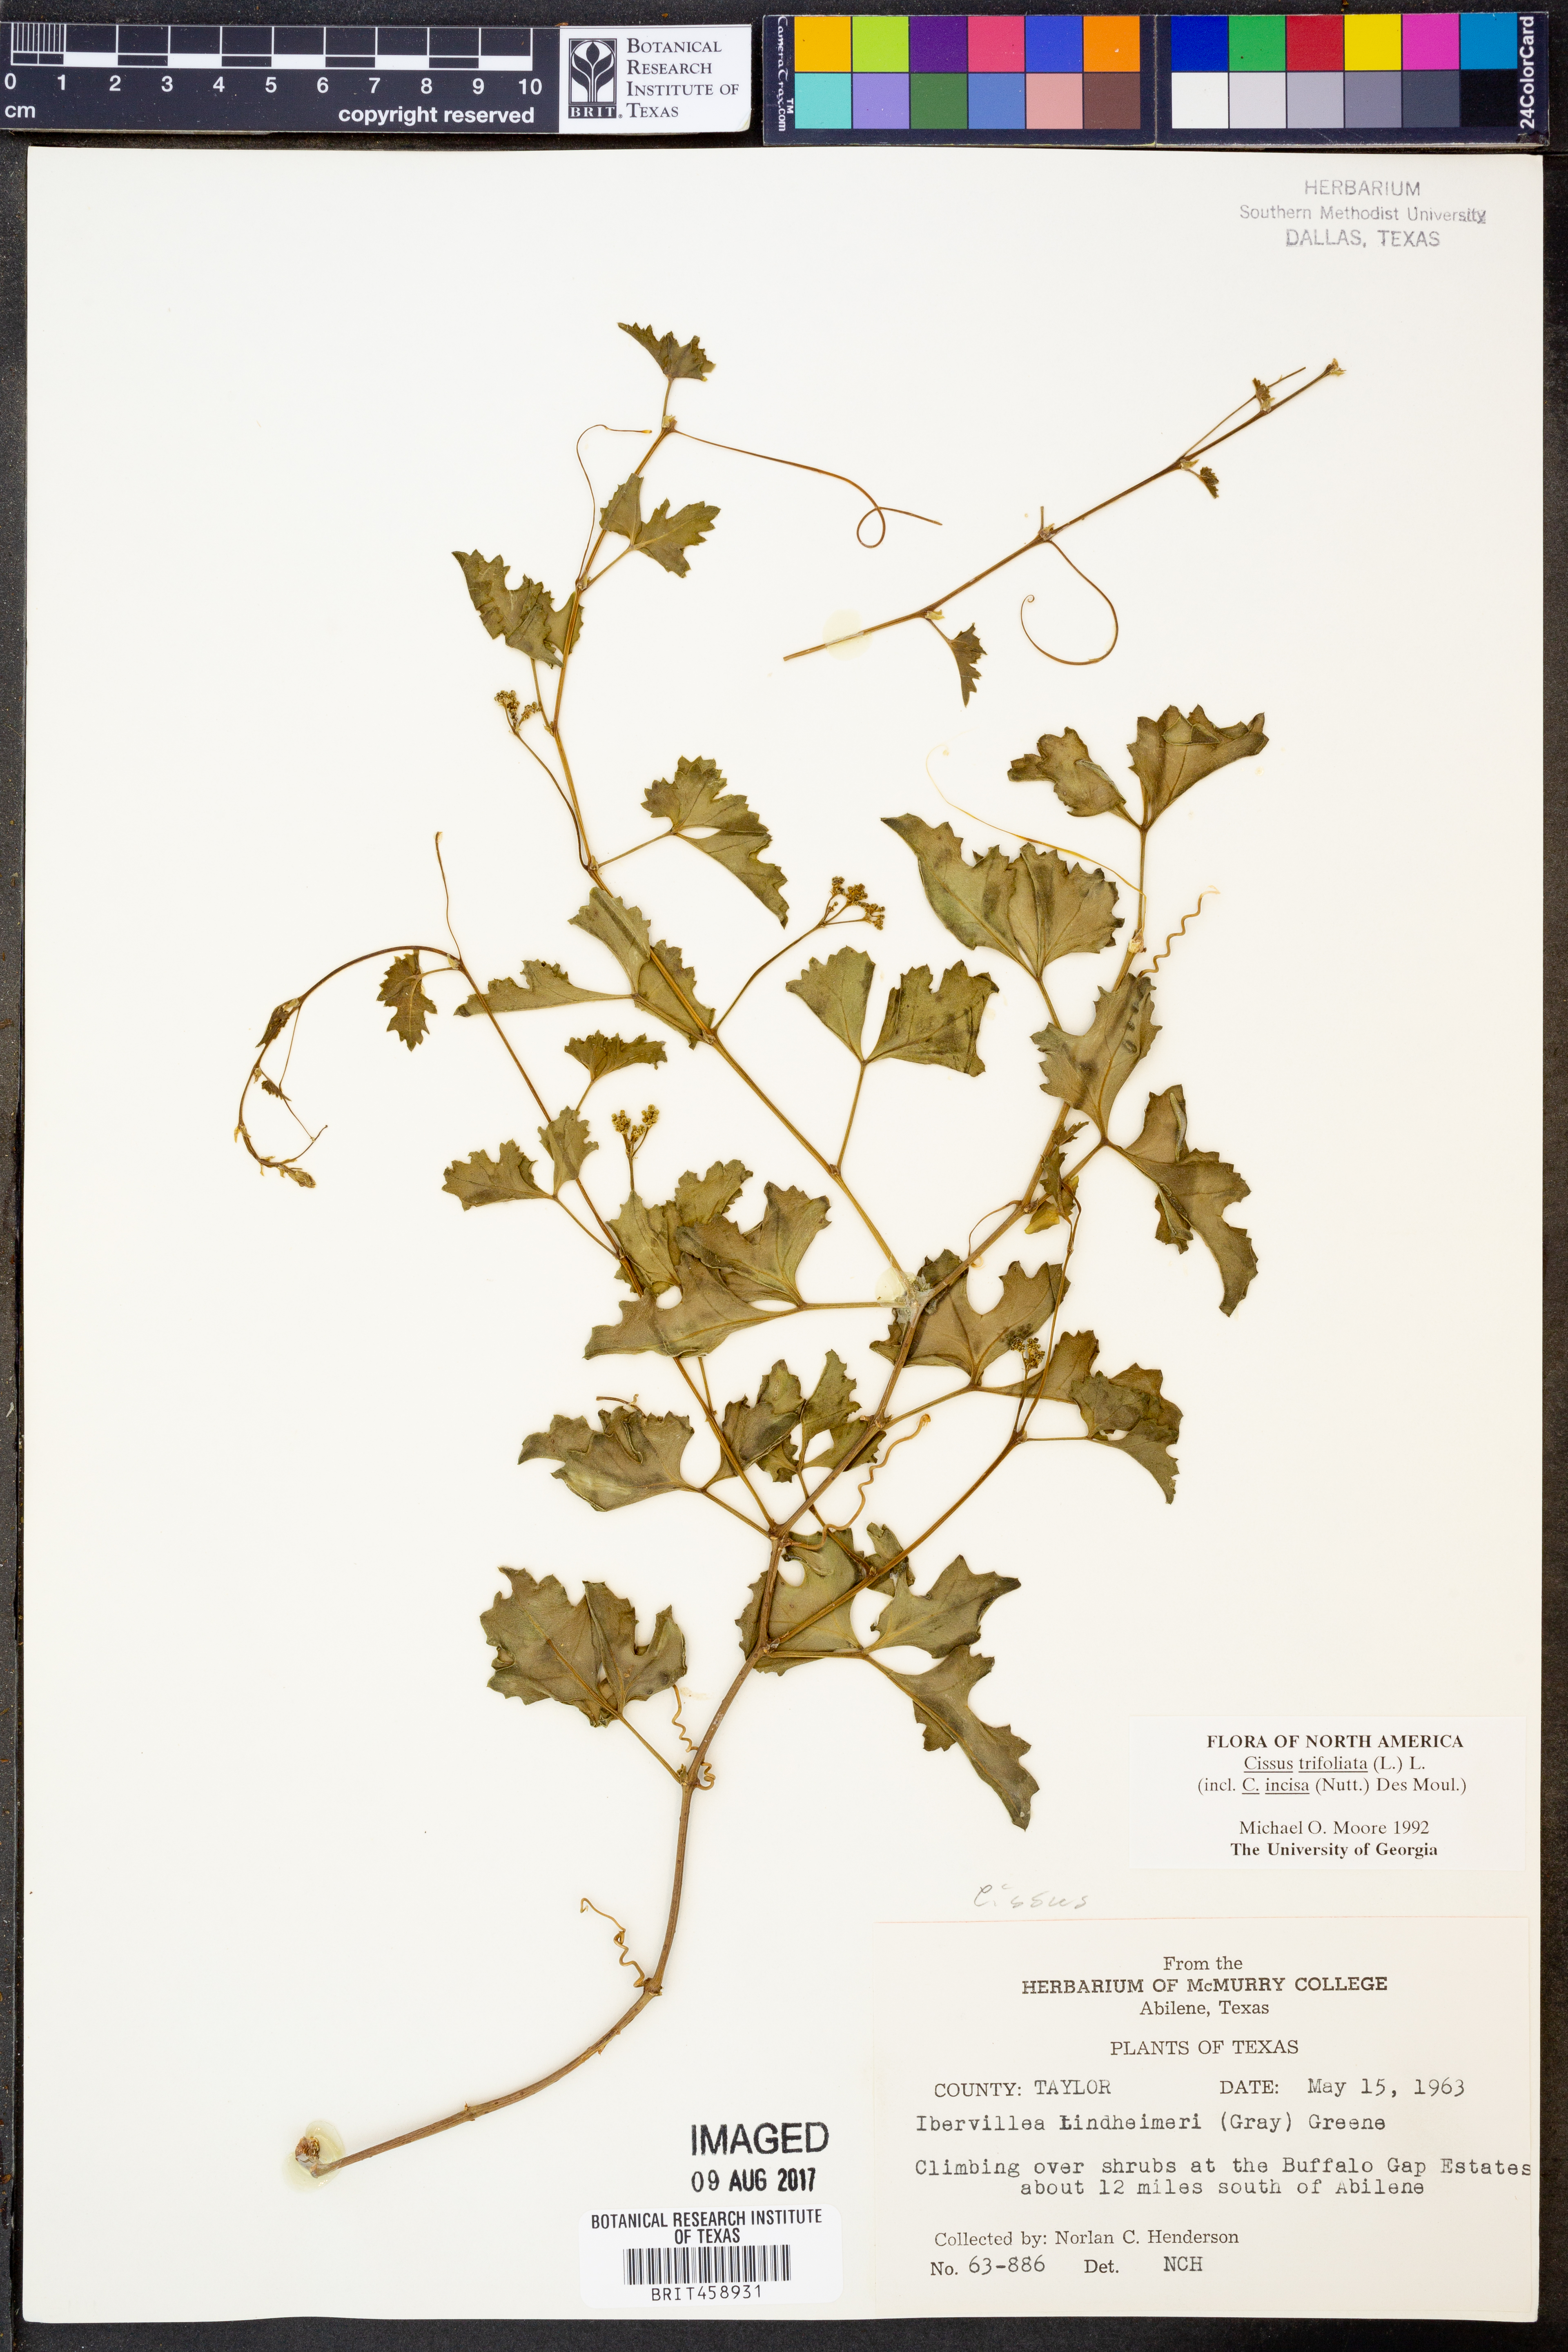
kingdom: Plantae
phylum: Tracheophyta
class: Magnoliopsida
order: Vitales
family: Vitaceae
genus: Cissus
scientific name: Cissus trifoliata
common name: Vine-sorrel
